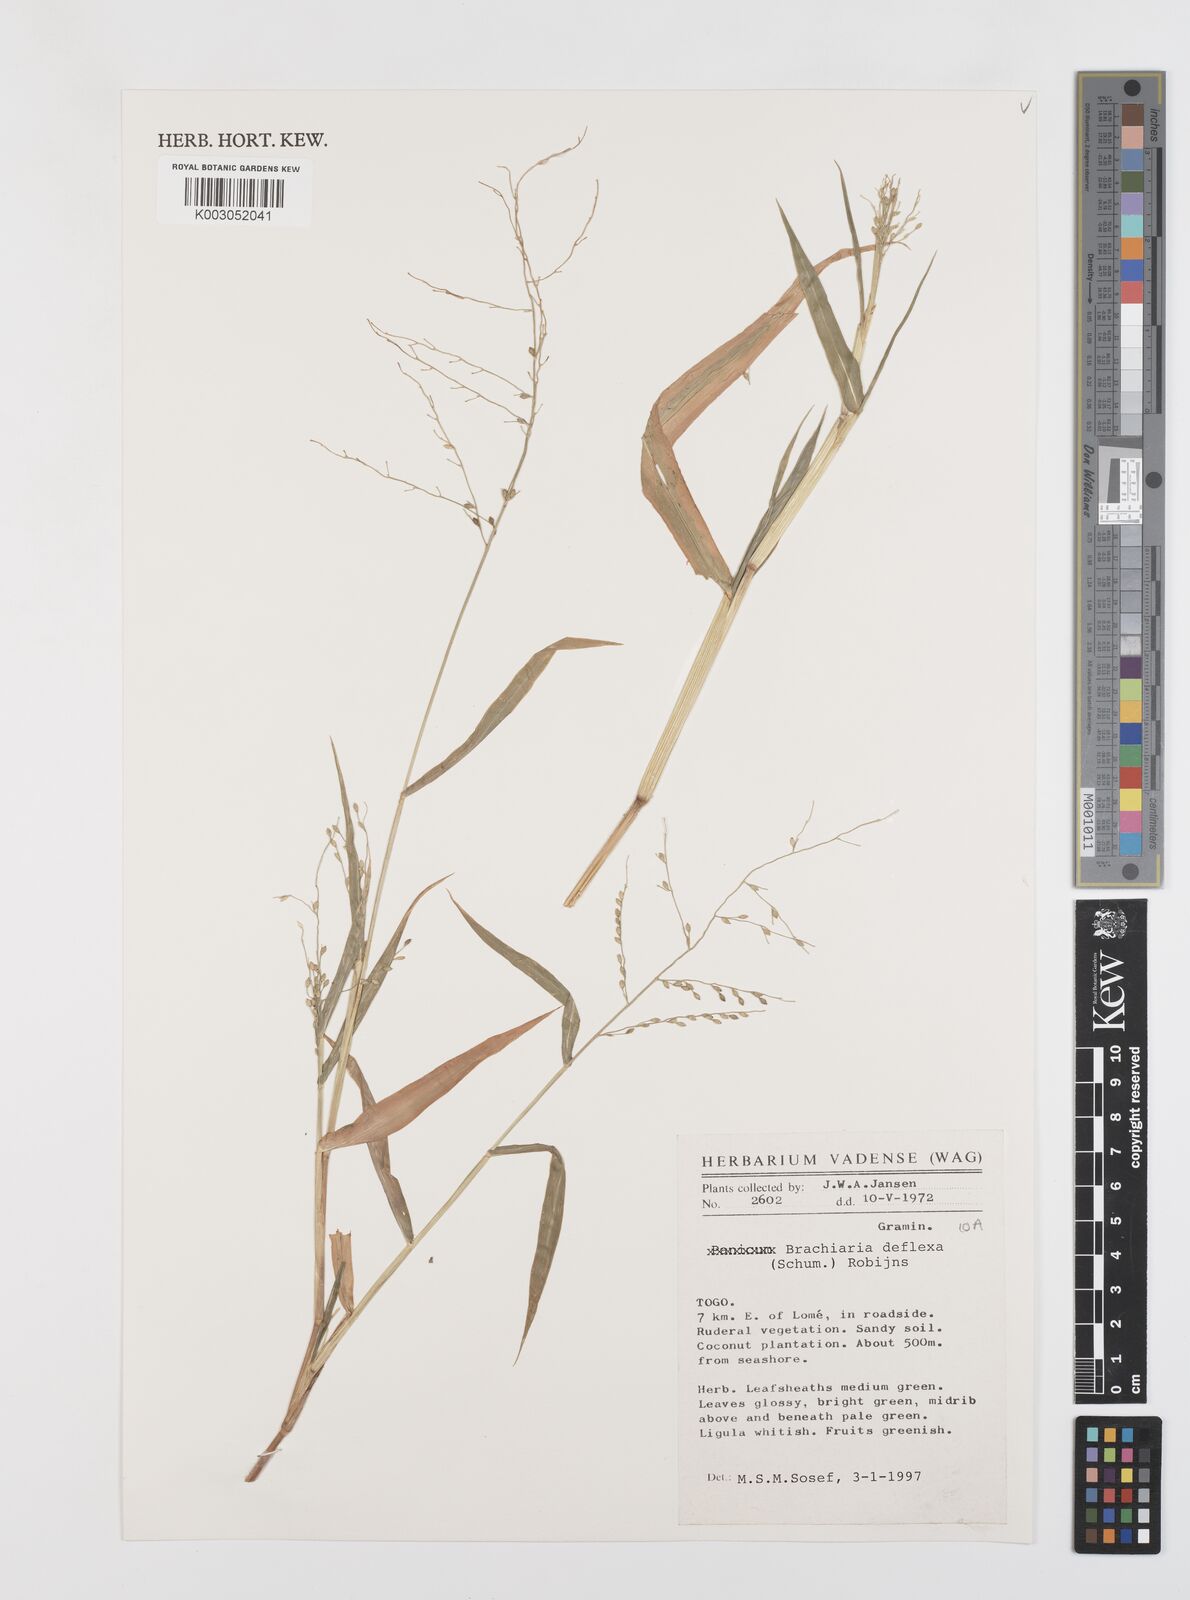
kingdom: Plantae
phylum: Tracheophyta
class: Liliopsida
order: Poales
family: Poaceae
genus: Urochloa
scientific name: Urochloa deflexa
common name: Guinea millet
